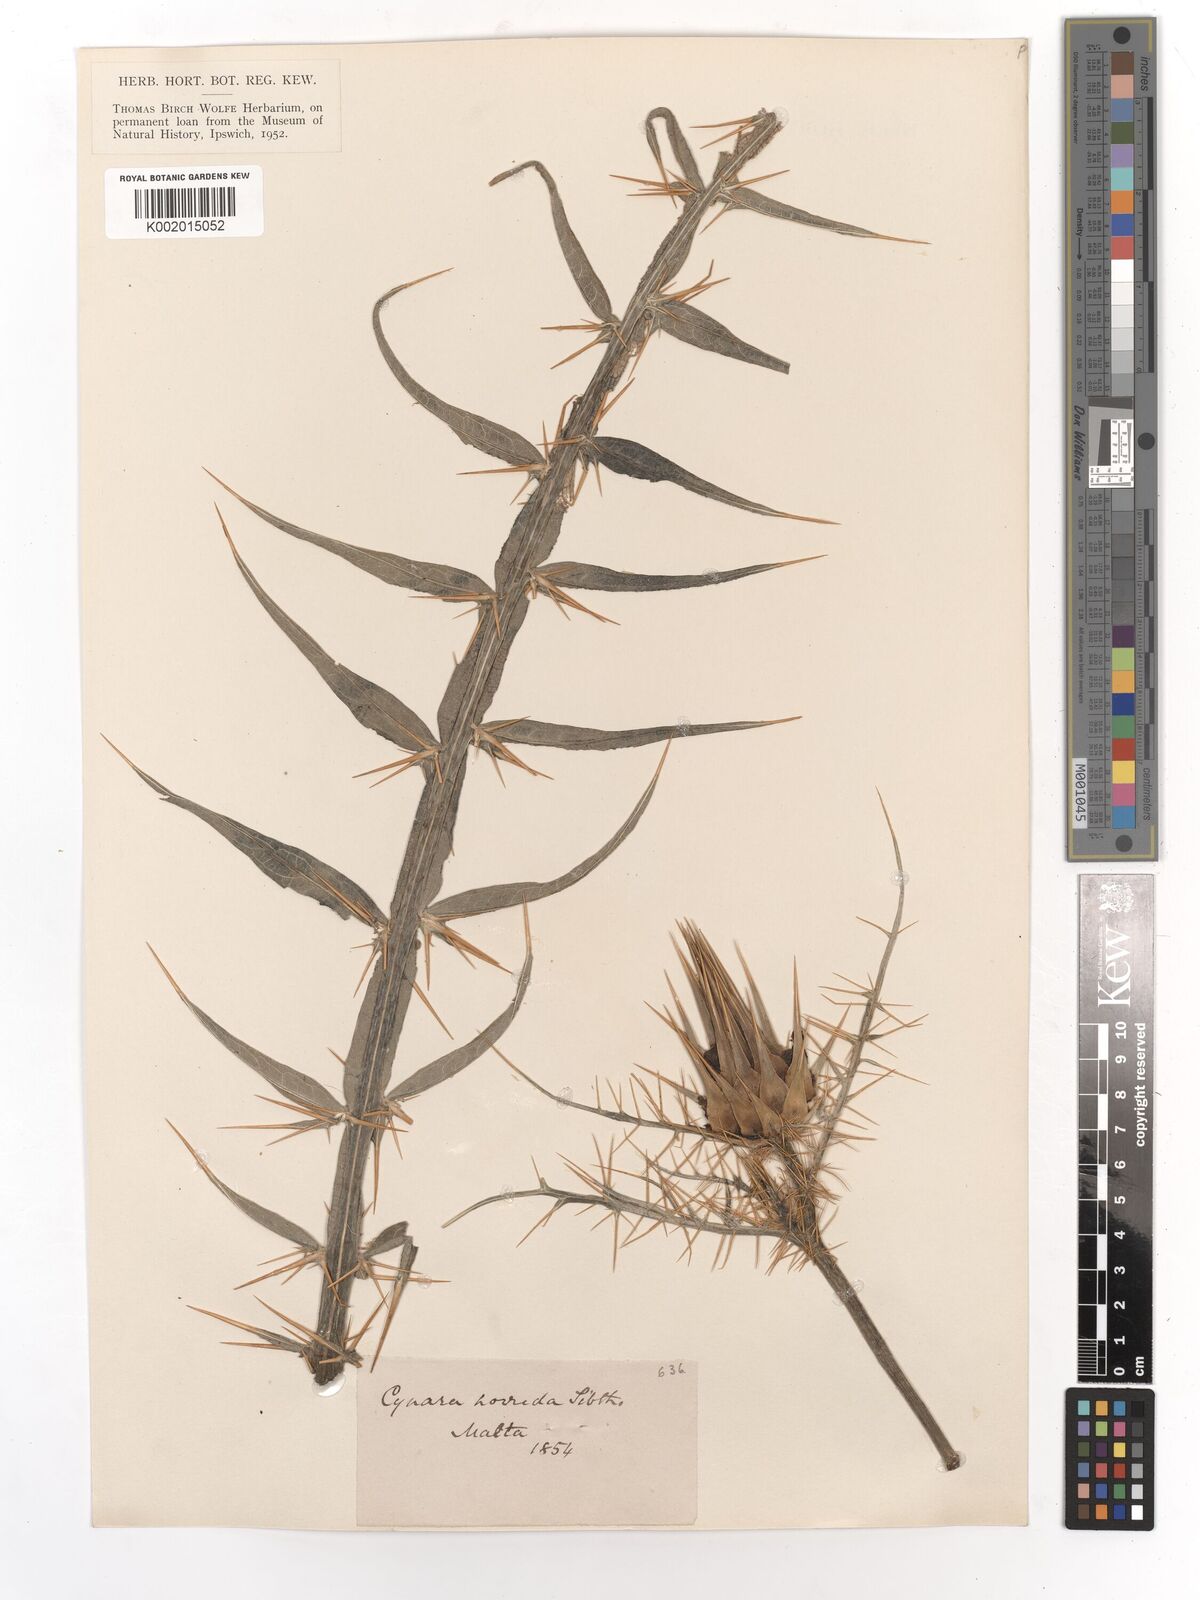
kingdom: Plantae
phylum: Tracheophyta
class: Magnoliopsida
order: Asterales
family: Asteraceae
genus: Cynara
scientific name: Cynara cardunculus
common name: Globe artichoke
